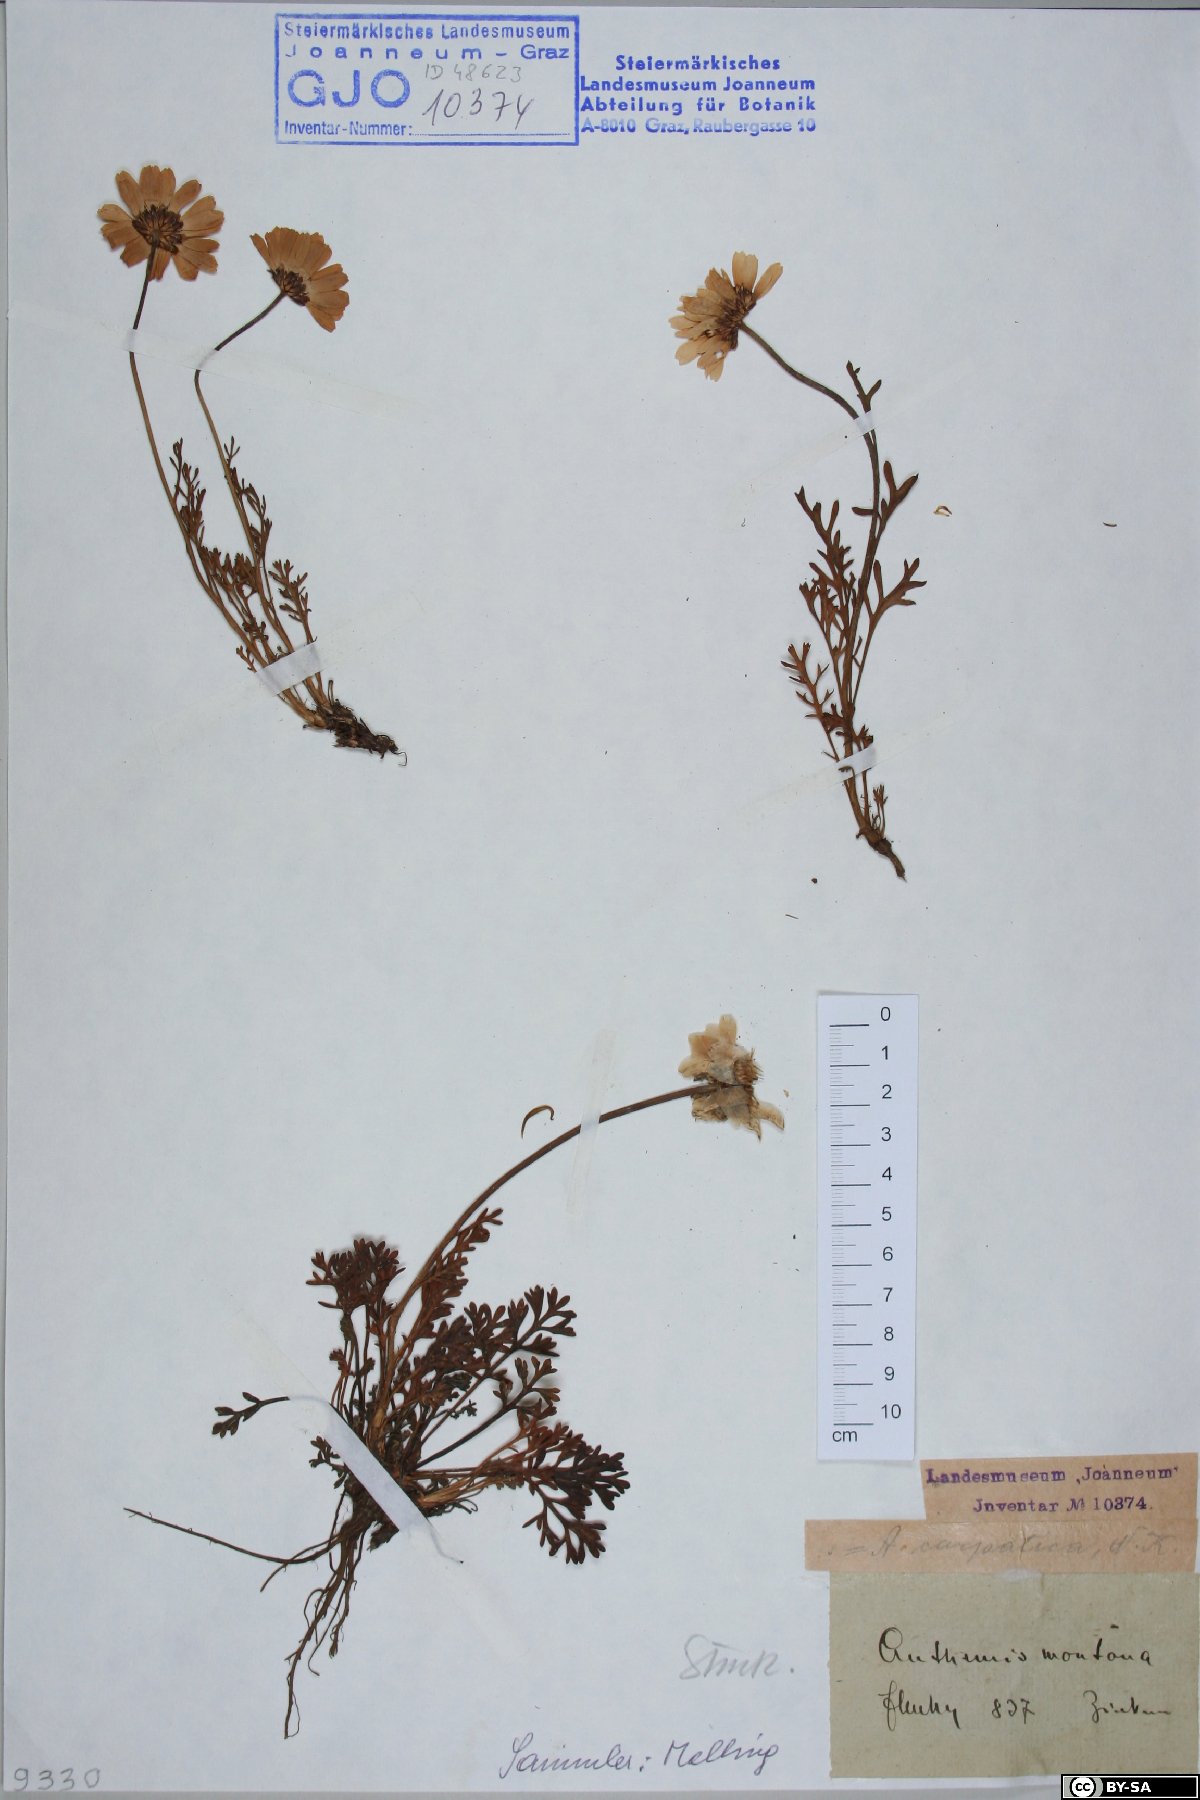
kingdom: Plantae
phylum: Tracheophyta
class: Magnoliopsida
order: Asterales
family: Asteraceae
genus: Anthemis
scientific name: Anthemis cretica
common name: Mountain dog-daisy
